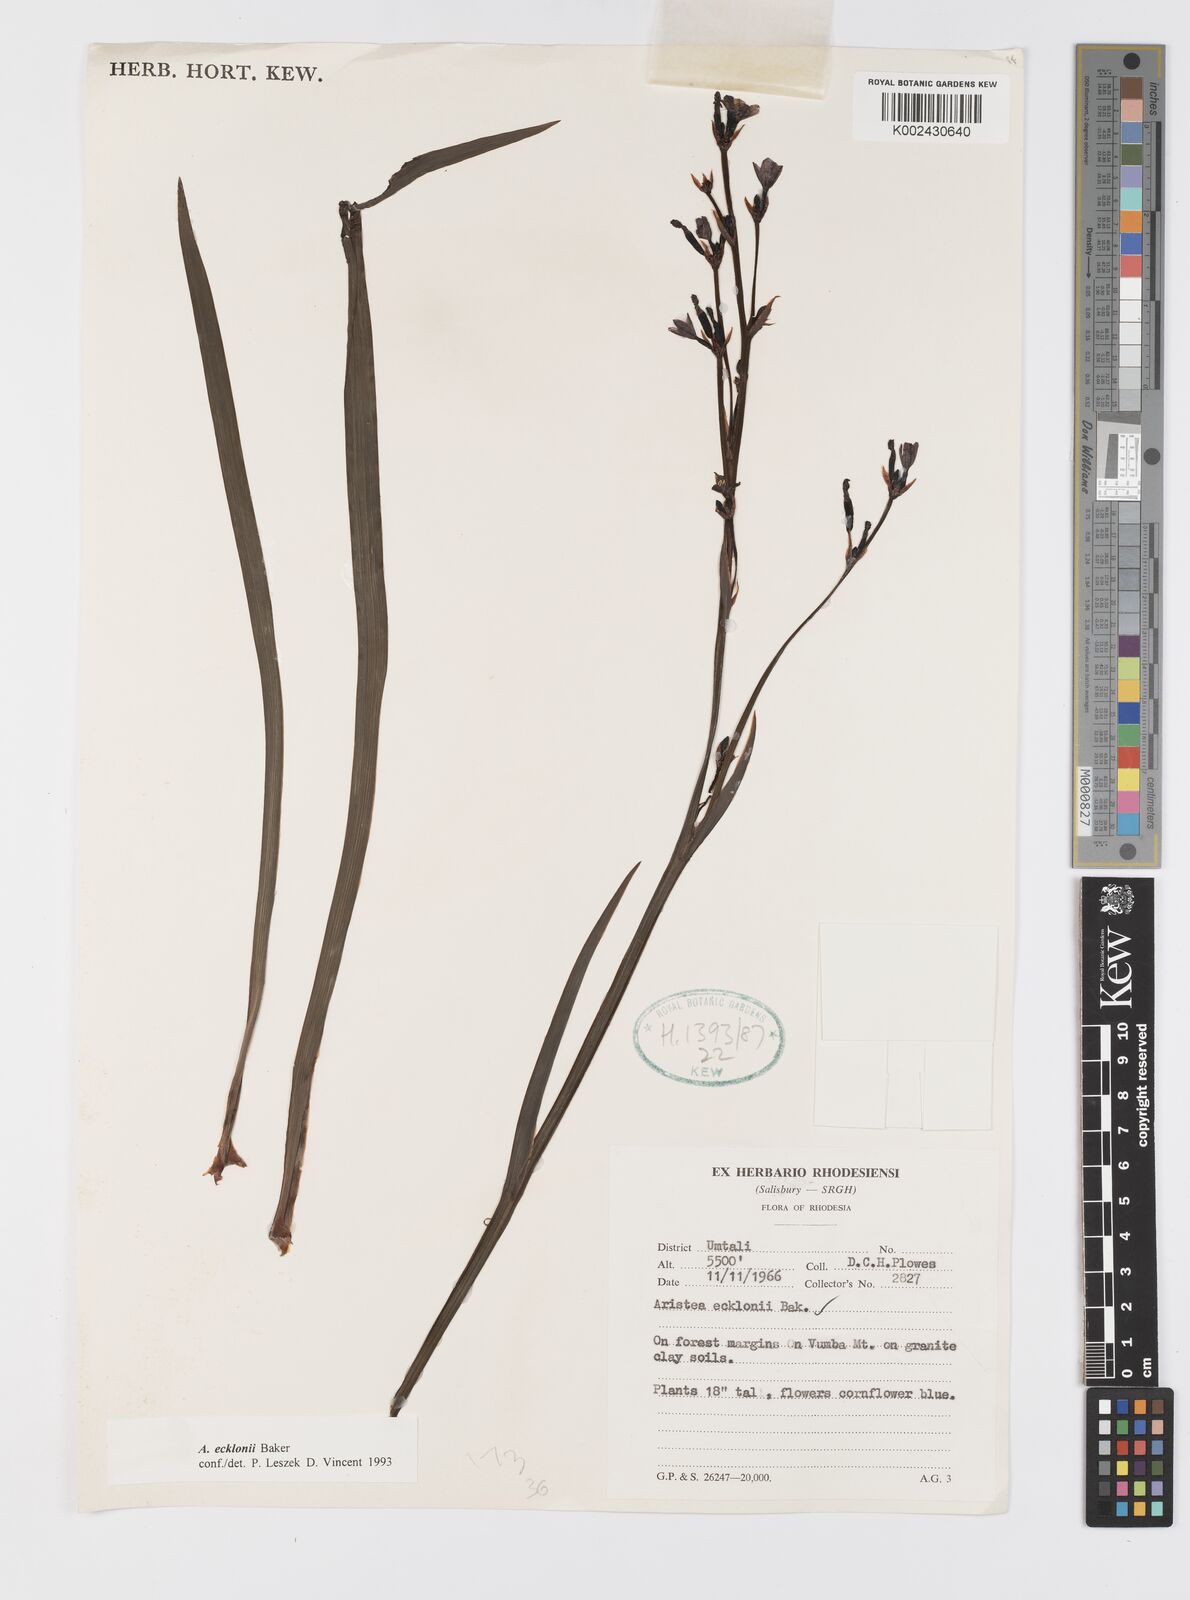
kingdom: Plantae
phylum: Tracheophyta
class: Liliopsida
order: Asparagales
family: Iridaceae
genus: Aristea
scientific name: Aristea ecklonii
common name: Blue corn-lily
